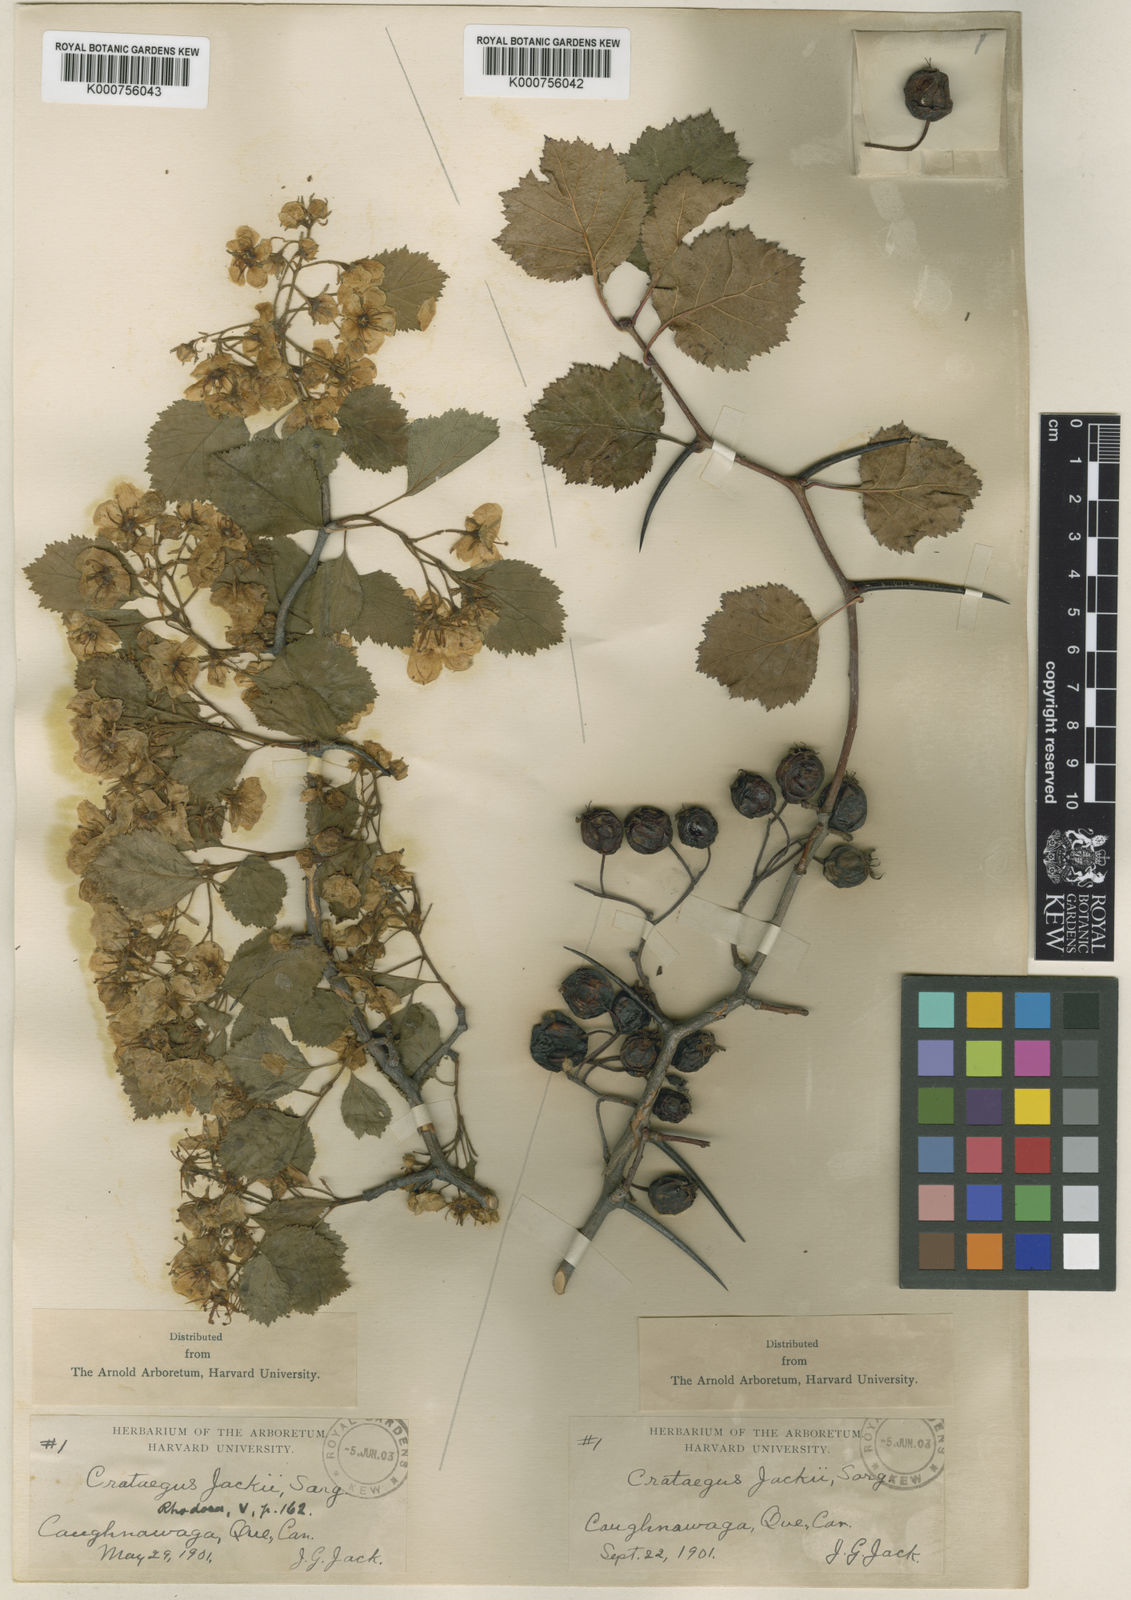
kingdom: Plantae
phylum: Tracheophyta
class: Magnoliopsida
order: Rosales
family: Rosaceae
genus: Crataegus
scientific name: Crataegus lumaria
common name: Jack's hawthorn
